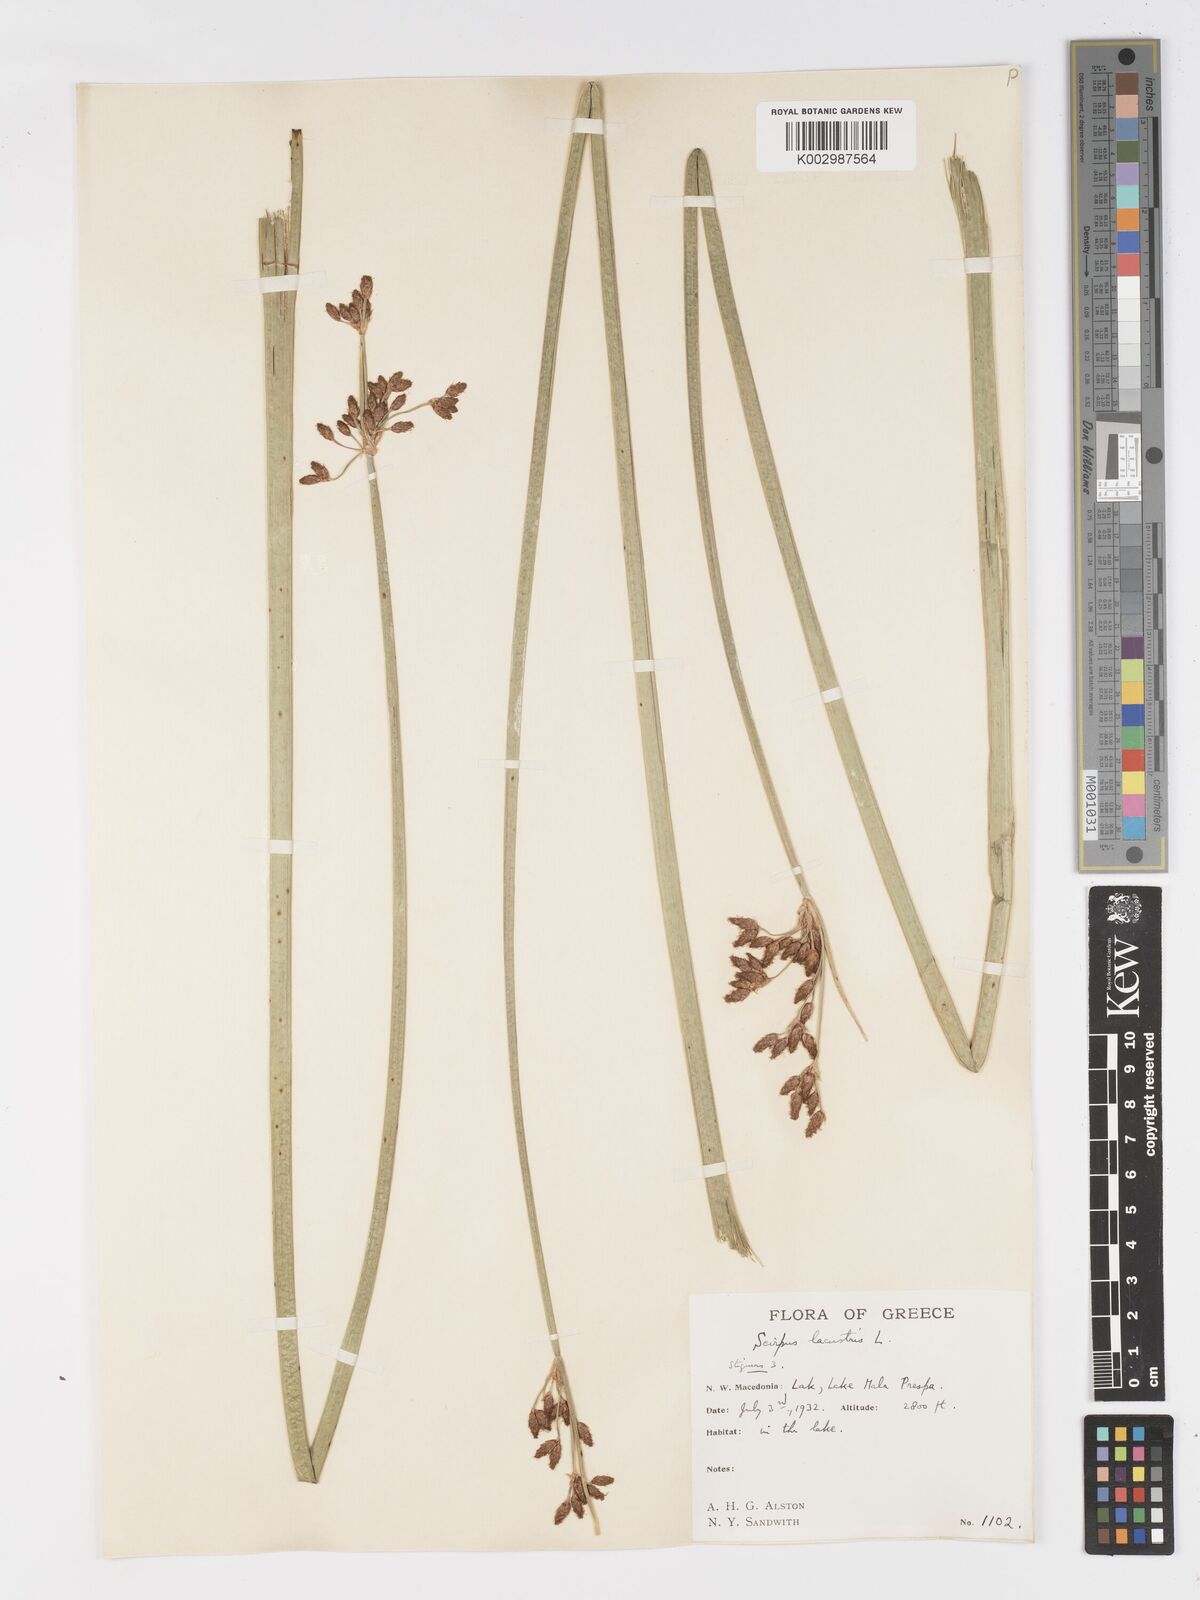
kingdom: Plantae
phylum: Tracheophyta
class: Liliopsida
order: Poales
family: Cyperaceae
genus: Schoenoplectus
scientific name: Schoenoplectus lacustris
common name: Common club-rush
